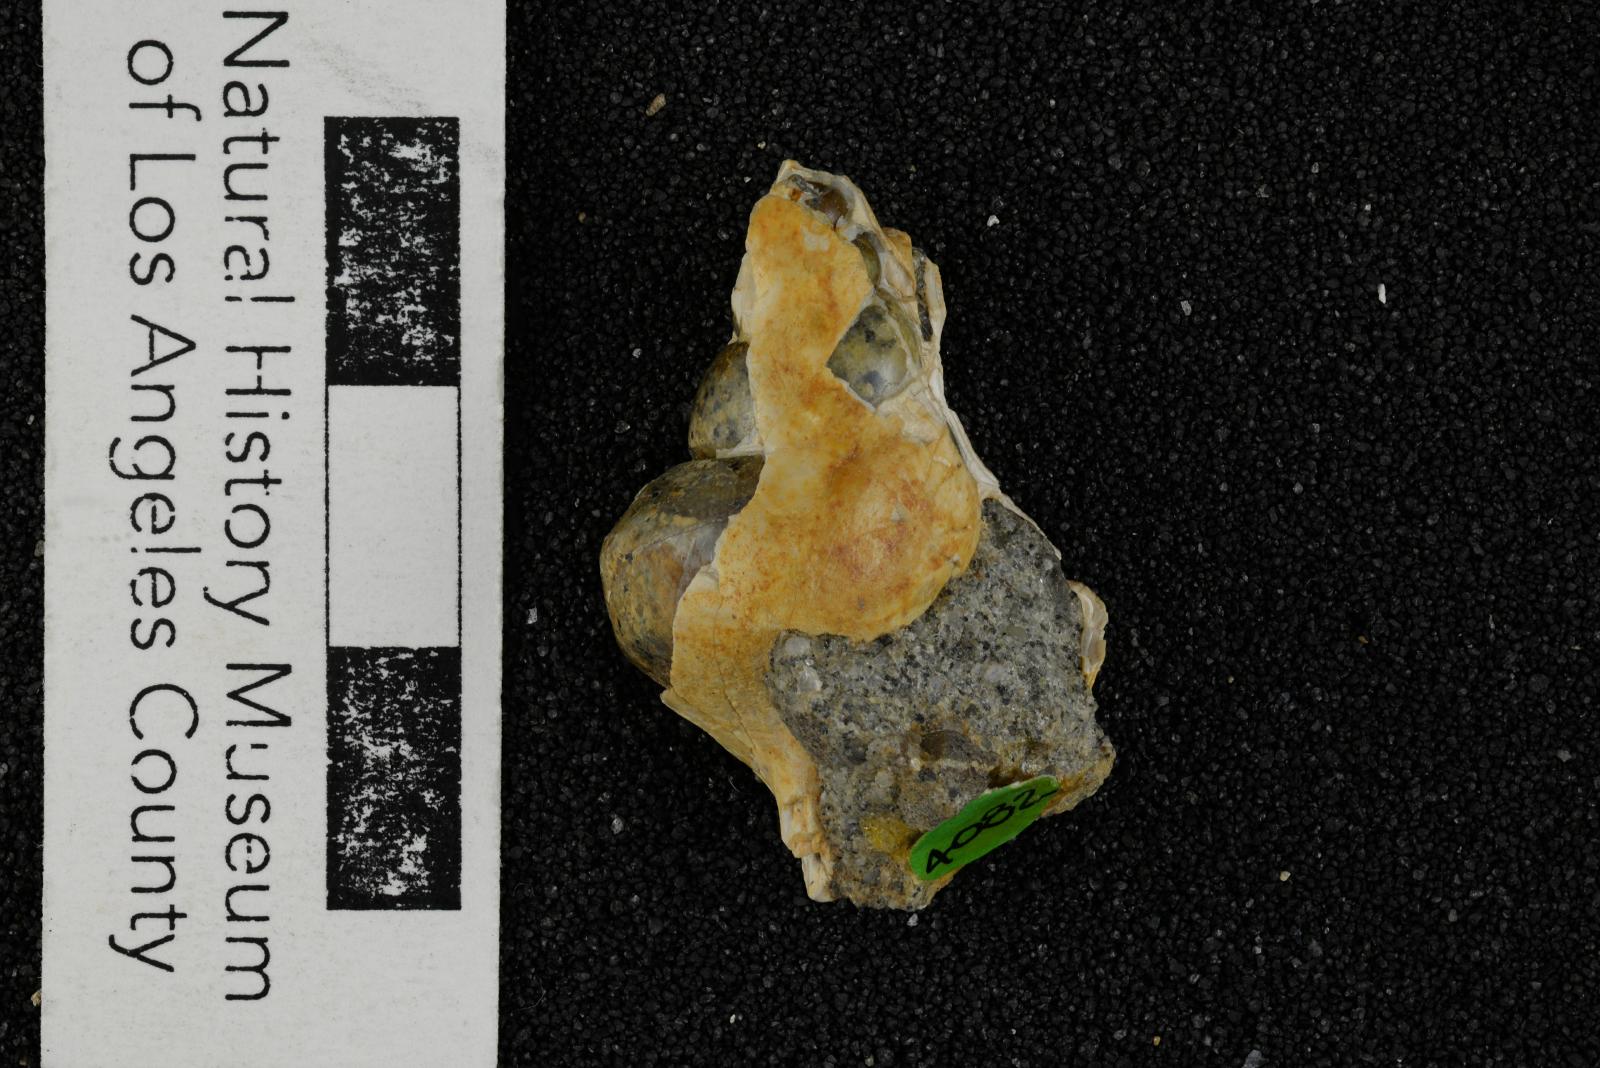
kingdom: Animalia
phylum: Mollusca
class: Gastropoda
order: Littorinimorpha
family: Aporrhaidae
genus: Tessarolax
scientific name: Tessarolax distorta
